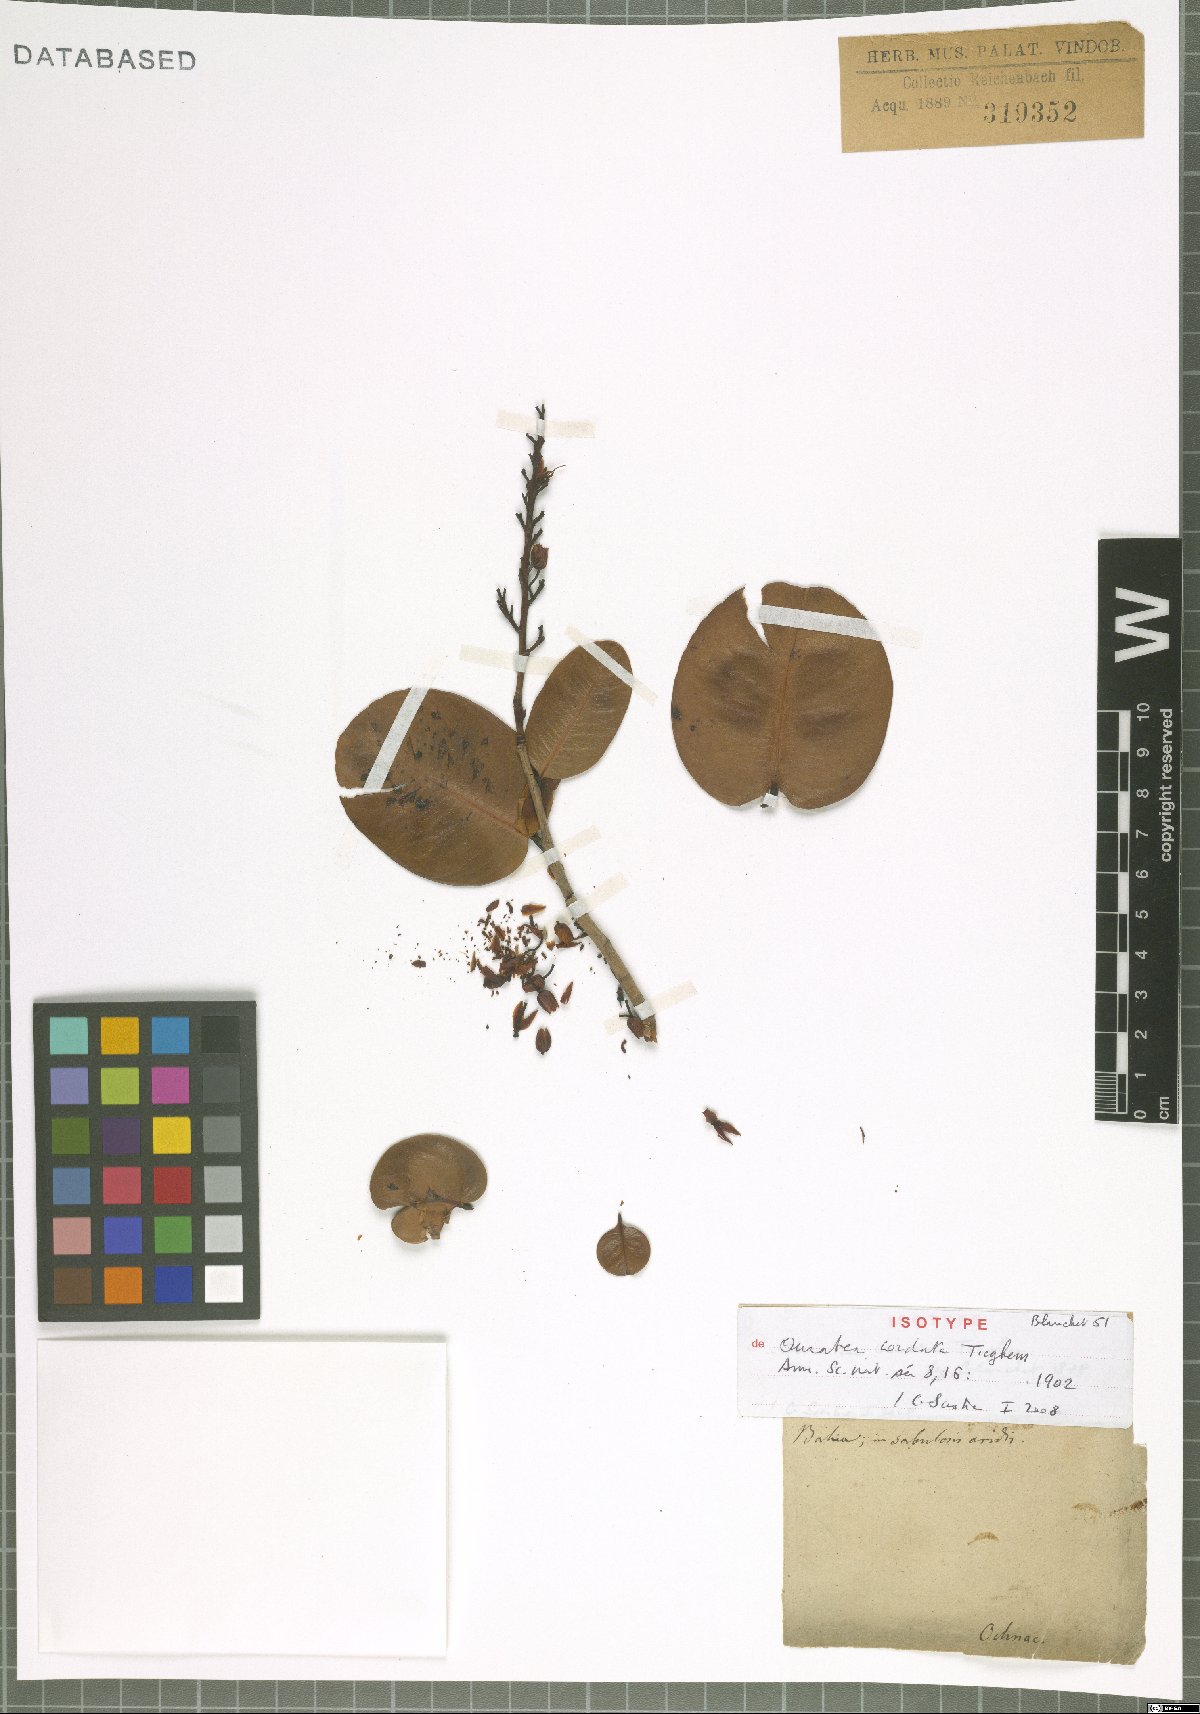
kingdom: Plantae
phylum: Tracheophyta
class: Magnoliopsida
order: Malpighiales
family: Ochnaceae
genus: Ouratea
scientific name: Ouratea crassa
